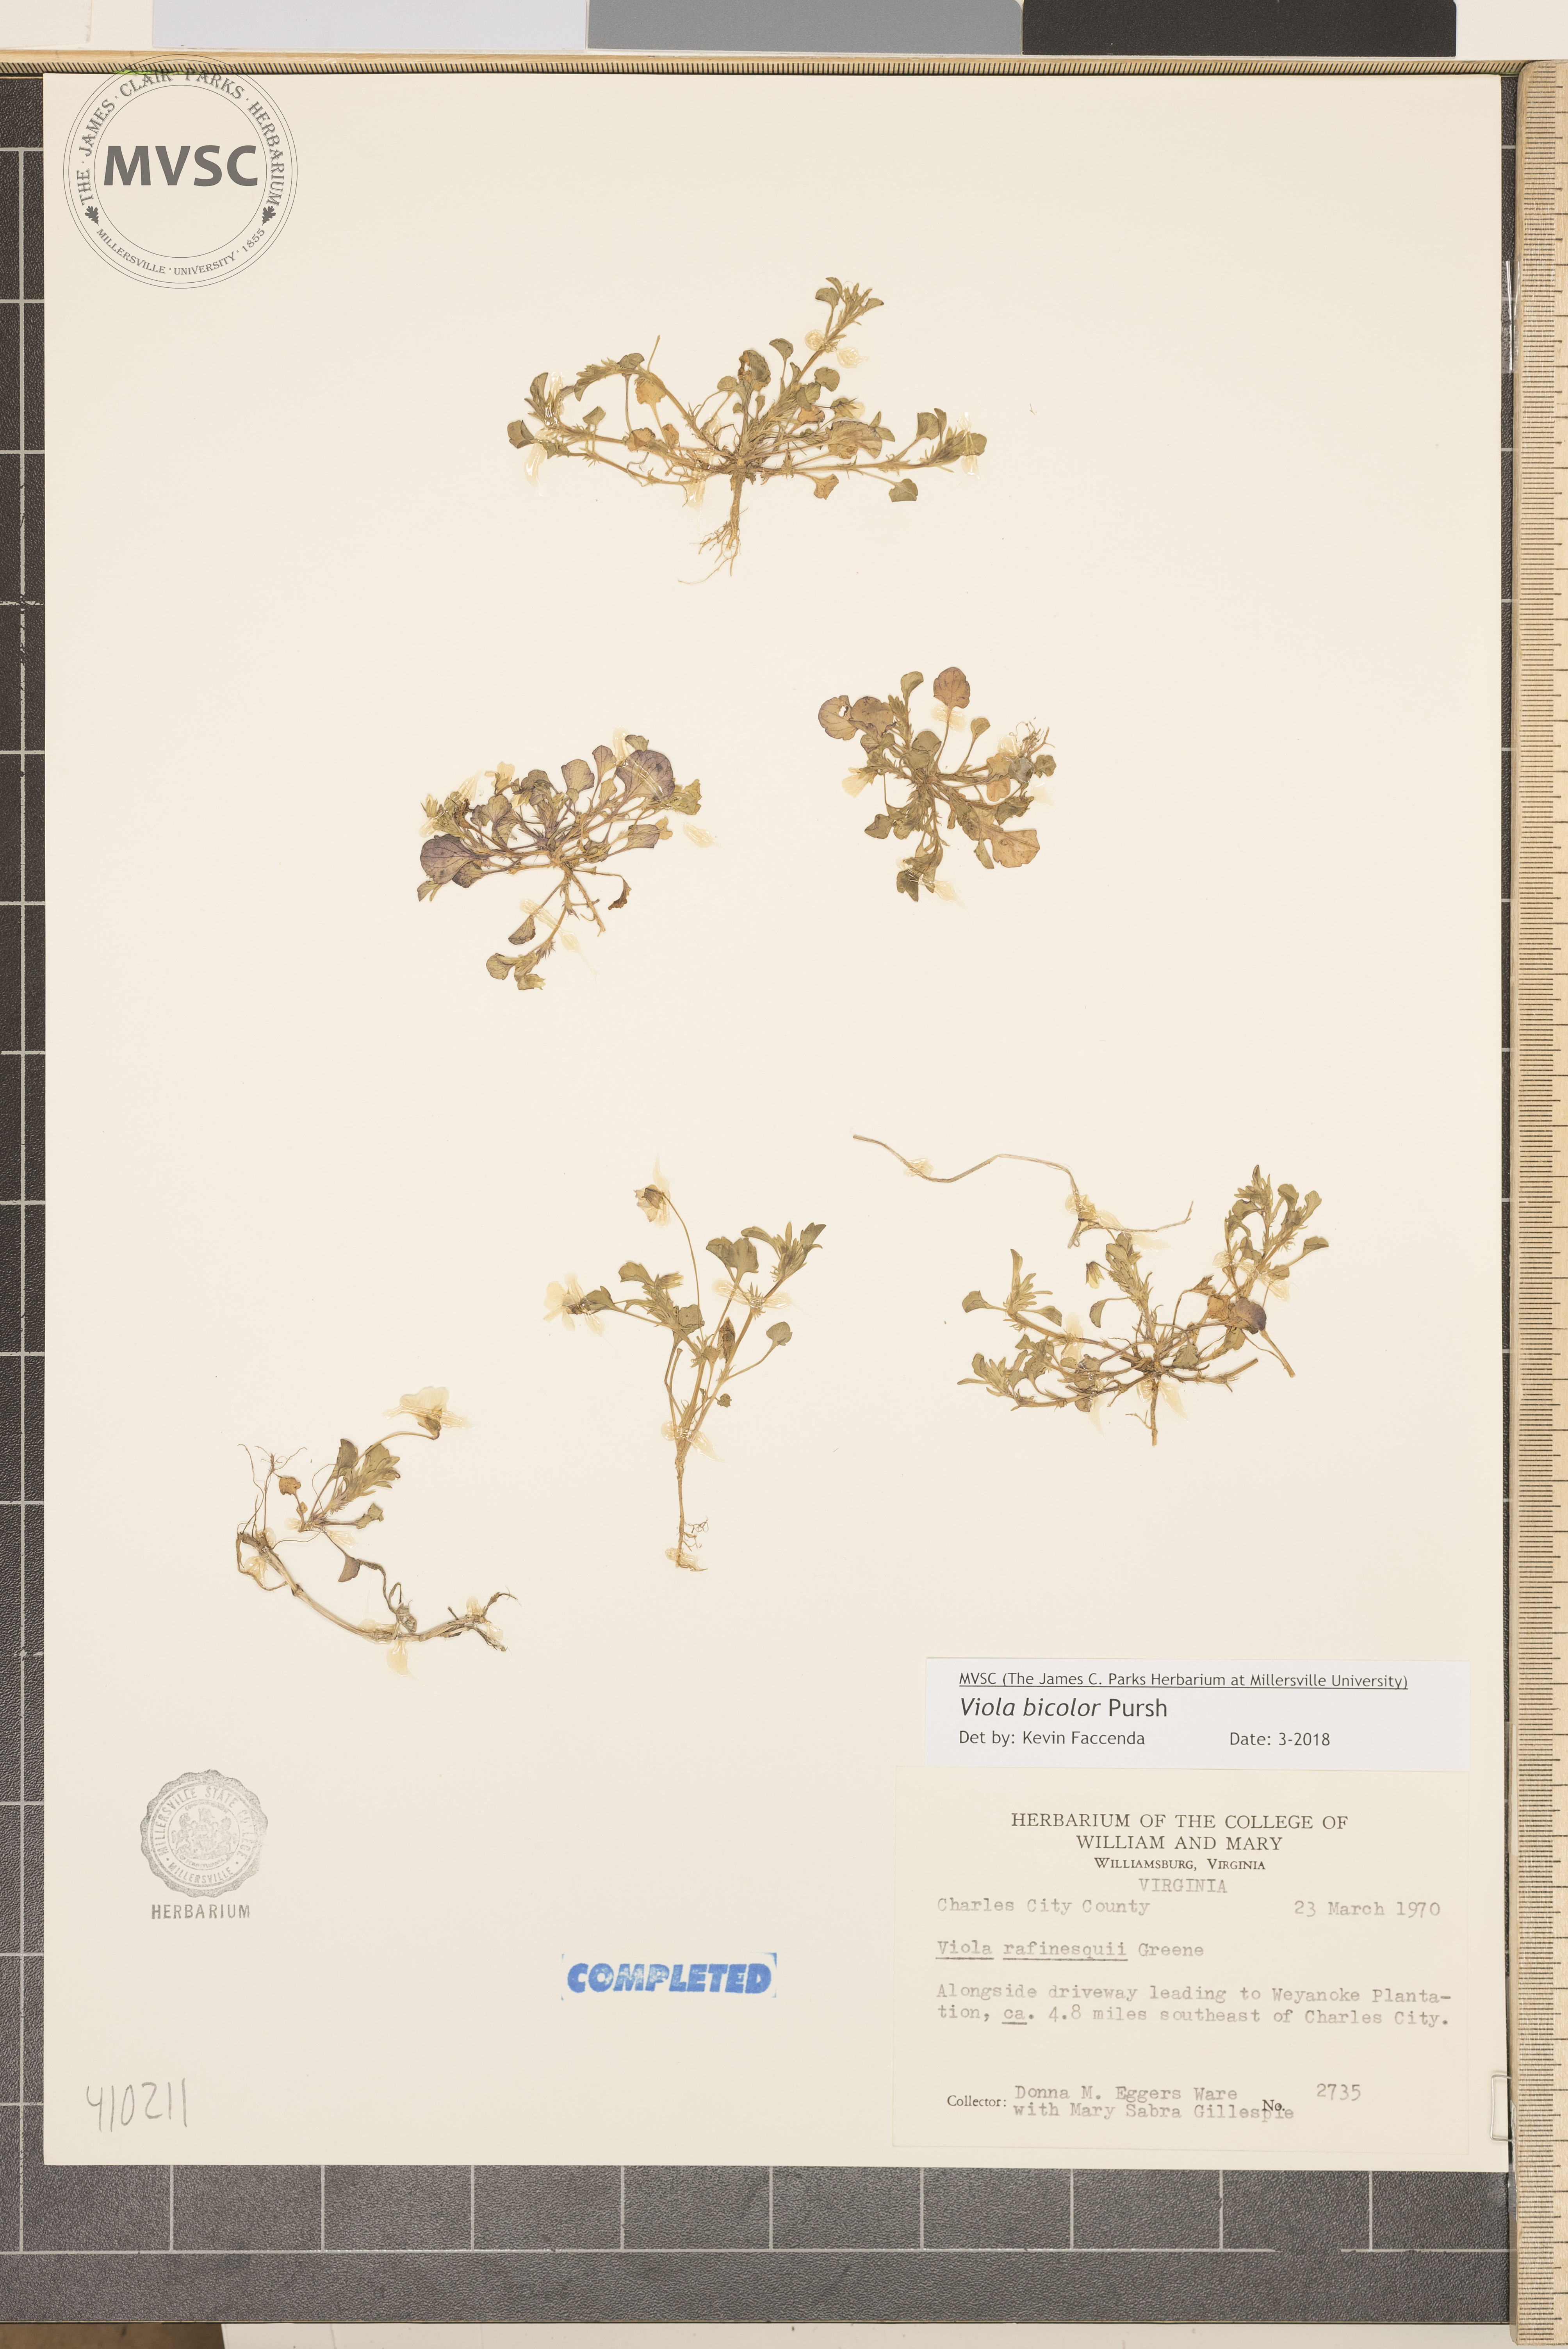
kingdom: Plantae
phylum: Tracheophyta
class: Magnoliopsida
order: Malpighiales
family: Violaceae
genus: Viola
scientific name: Viola rafinesquei
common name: American field pansy
